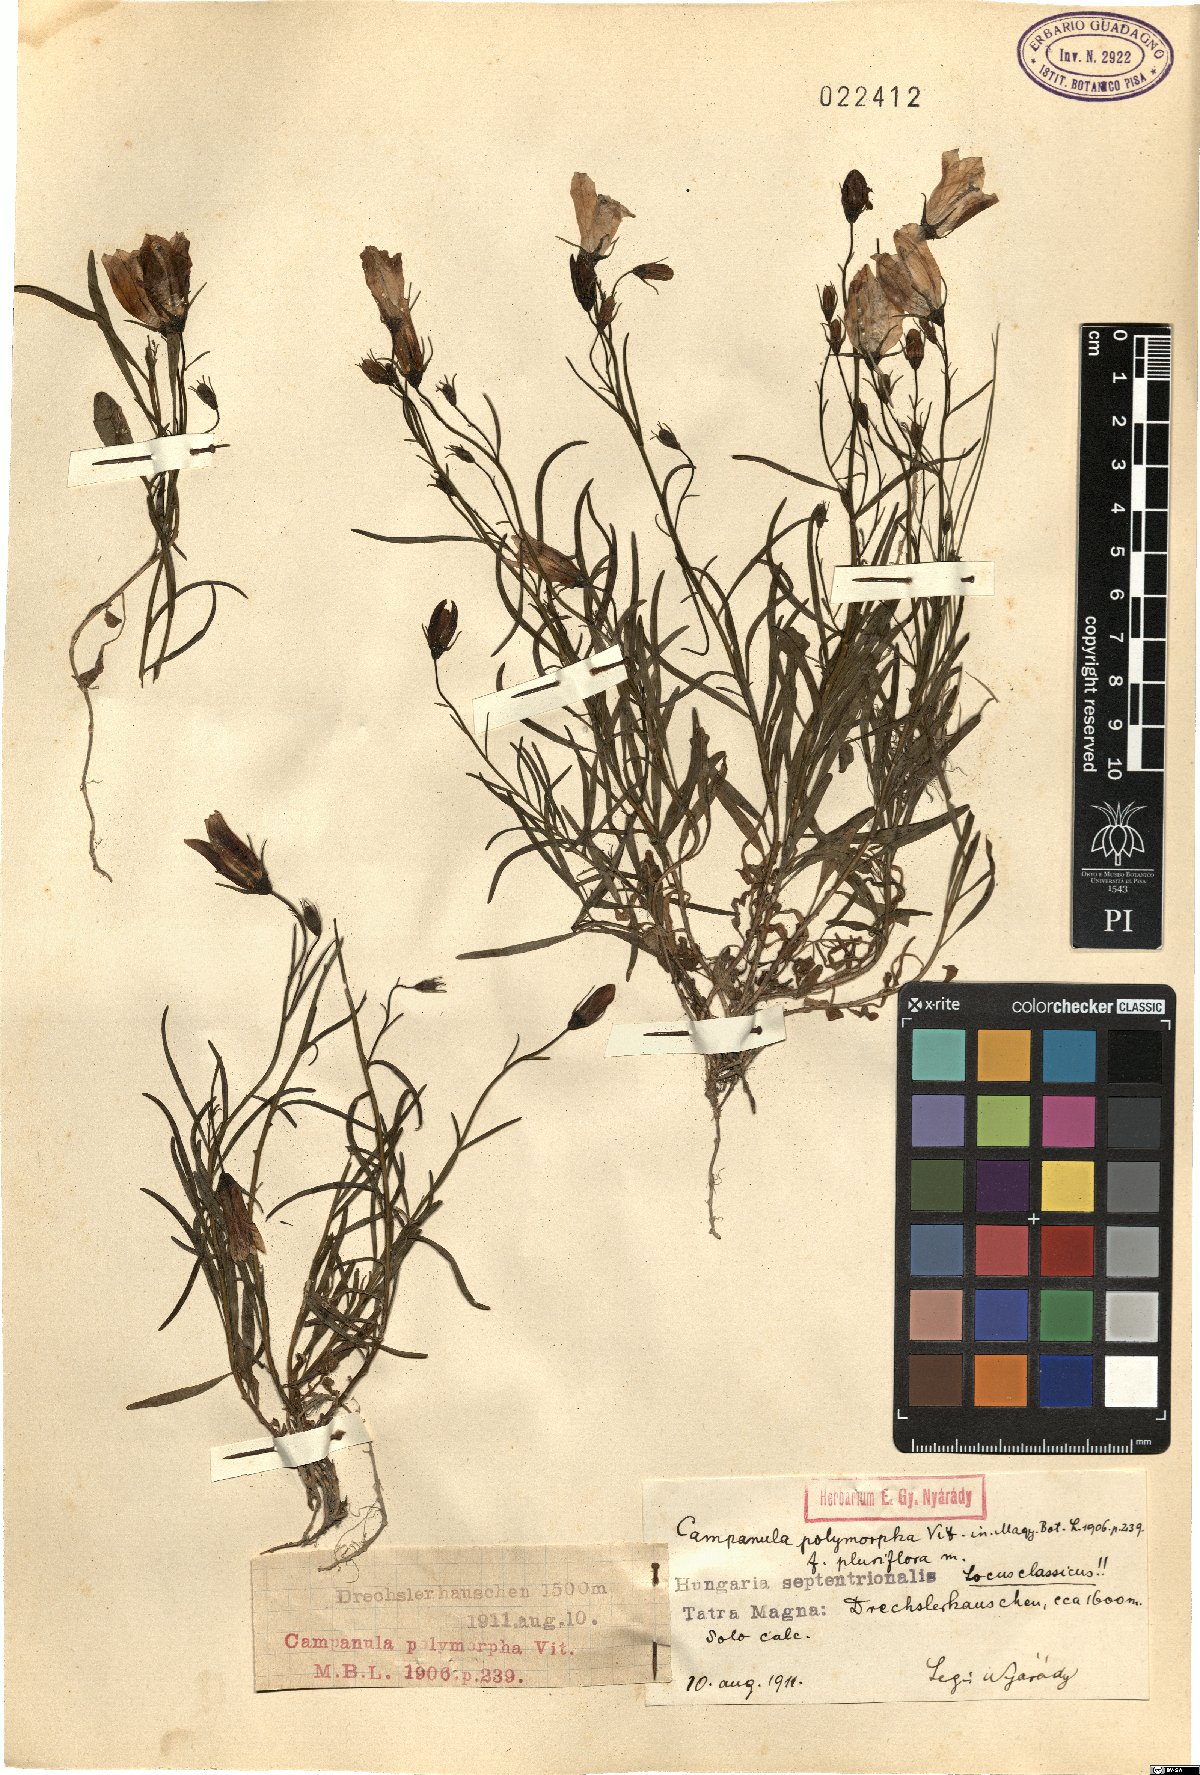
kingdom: Plantae
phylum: Tracheophyta
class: Magnoliopsida
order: Asterales
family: Campanulaceae
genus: Campanula
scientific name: Campanula tatrae
